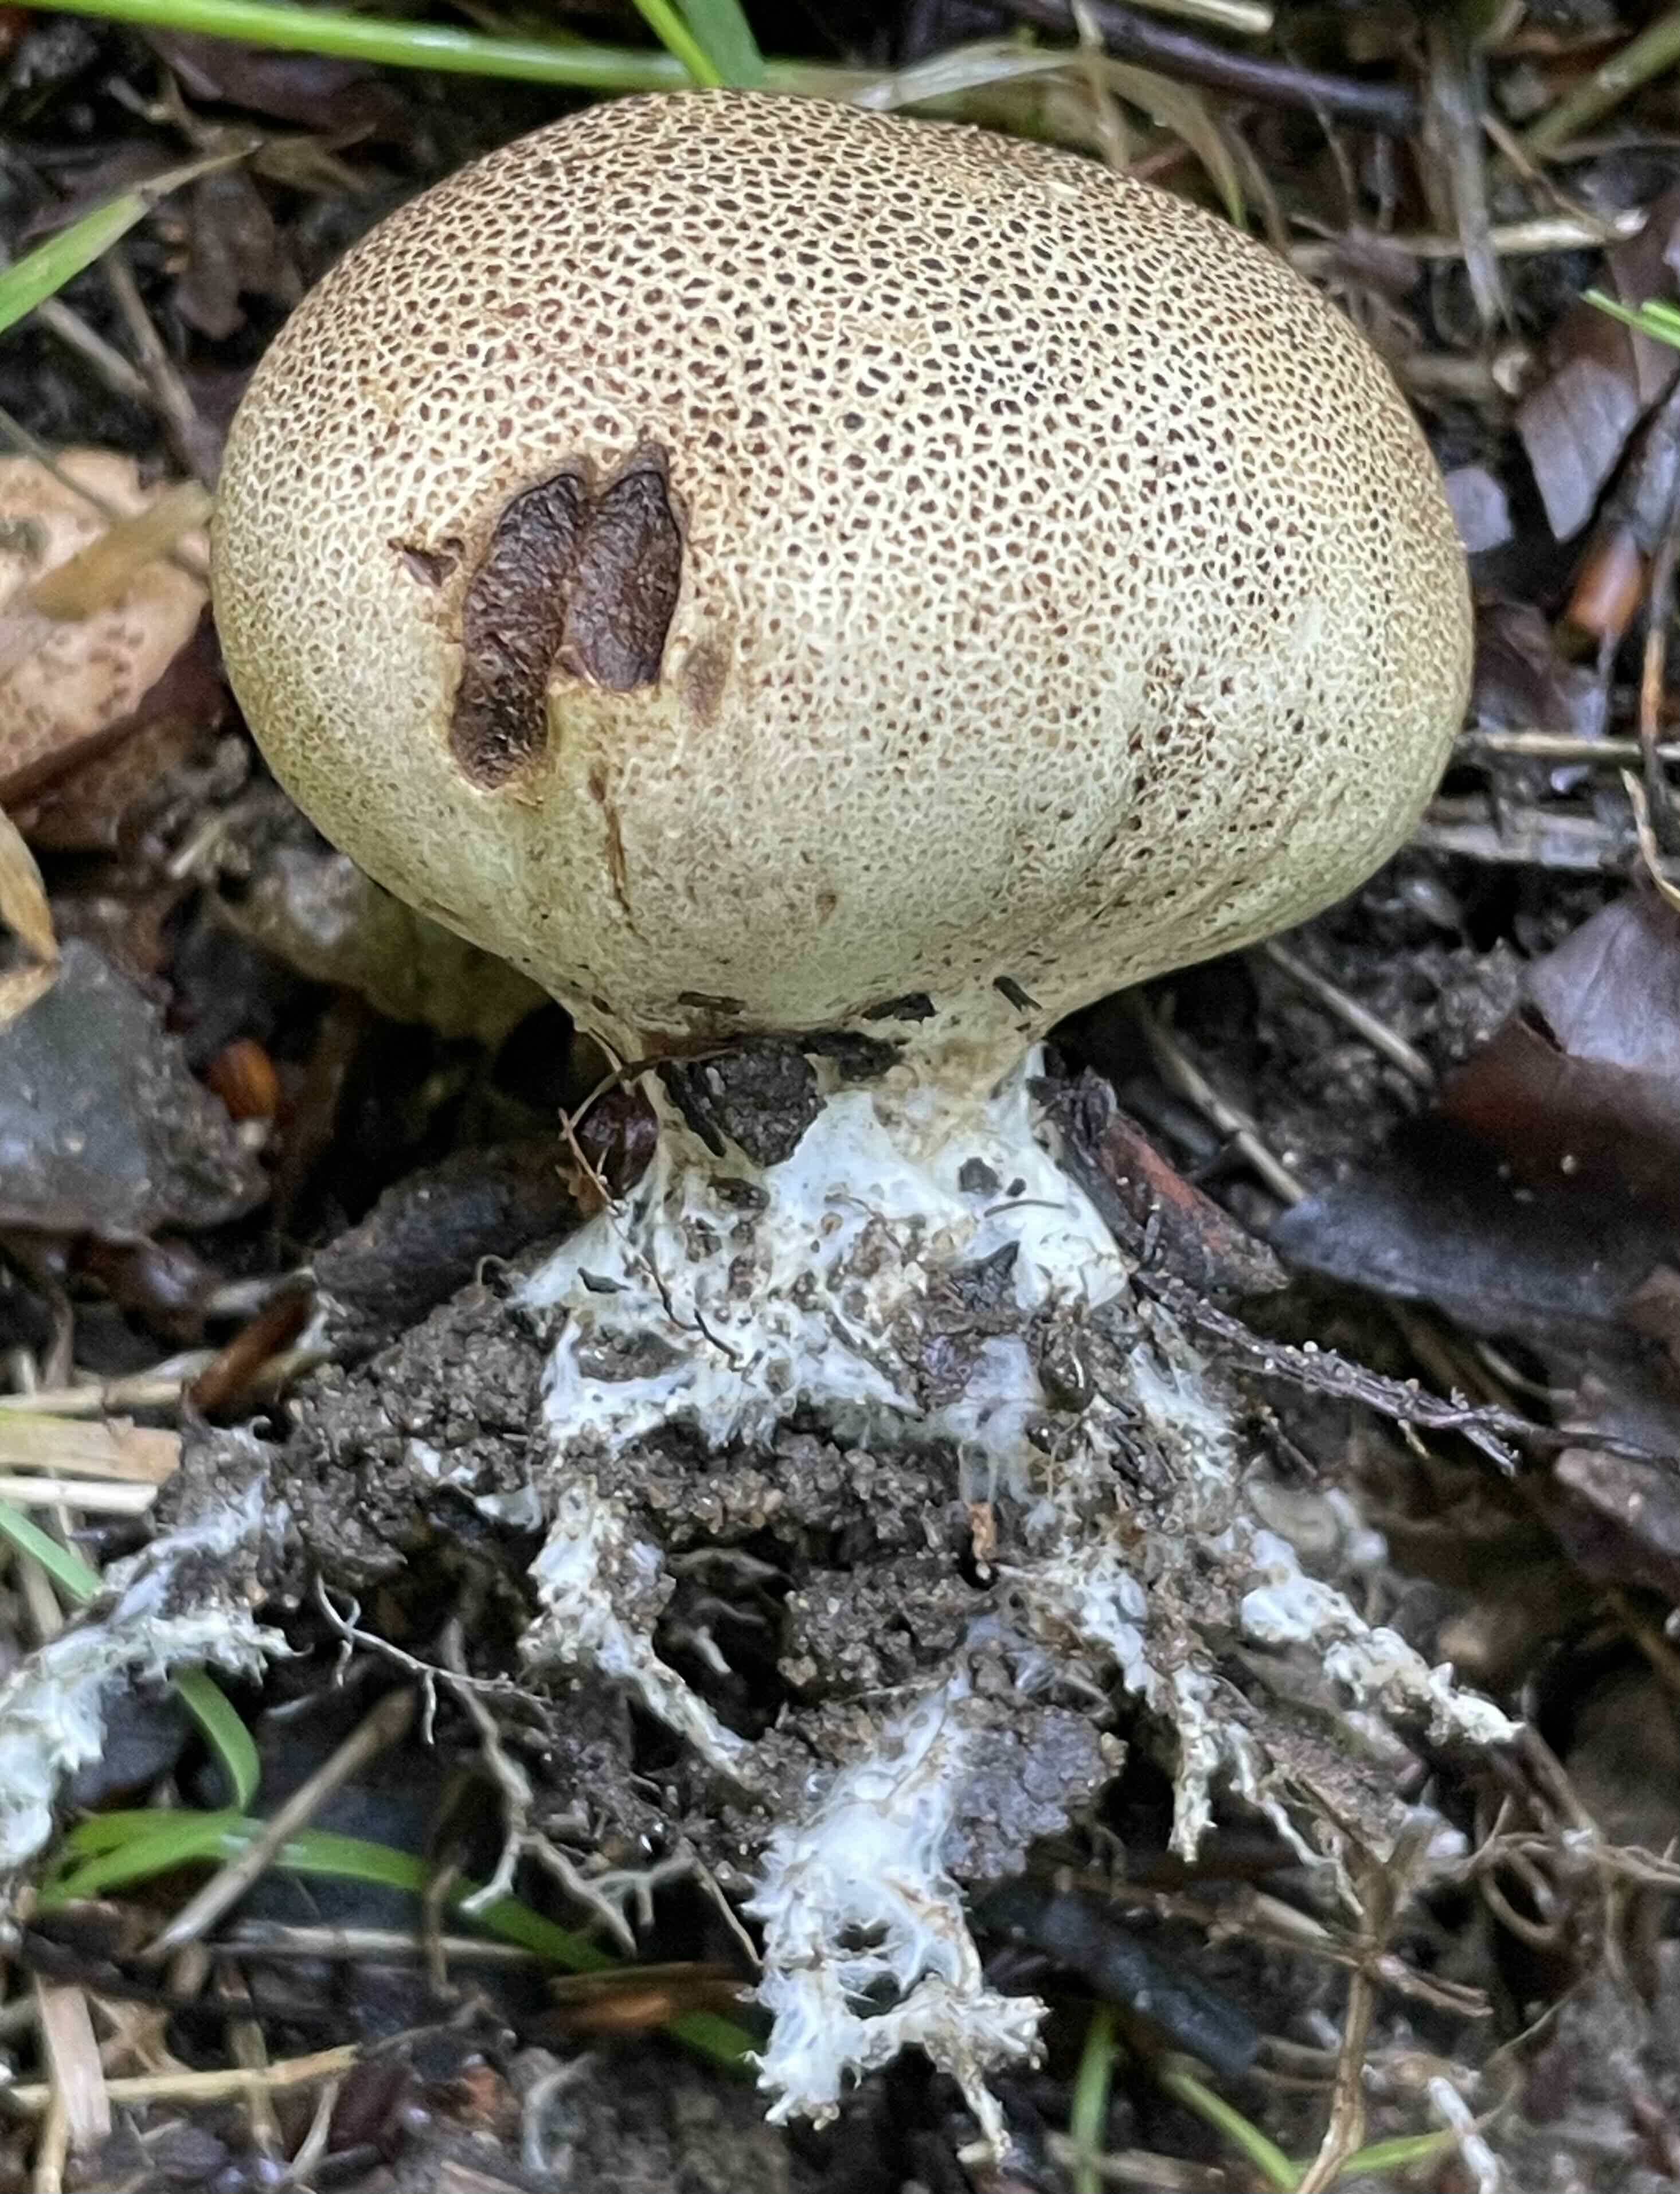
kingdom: Fungi
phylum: Basidiomycota
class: Agaricomycetes
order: Boletales
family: Sclerodermataceae
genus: Scleroderma
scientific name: Scleroderma
